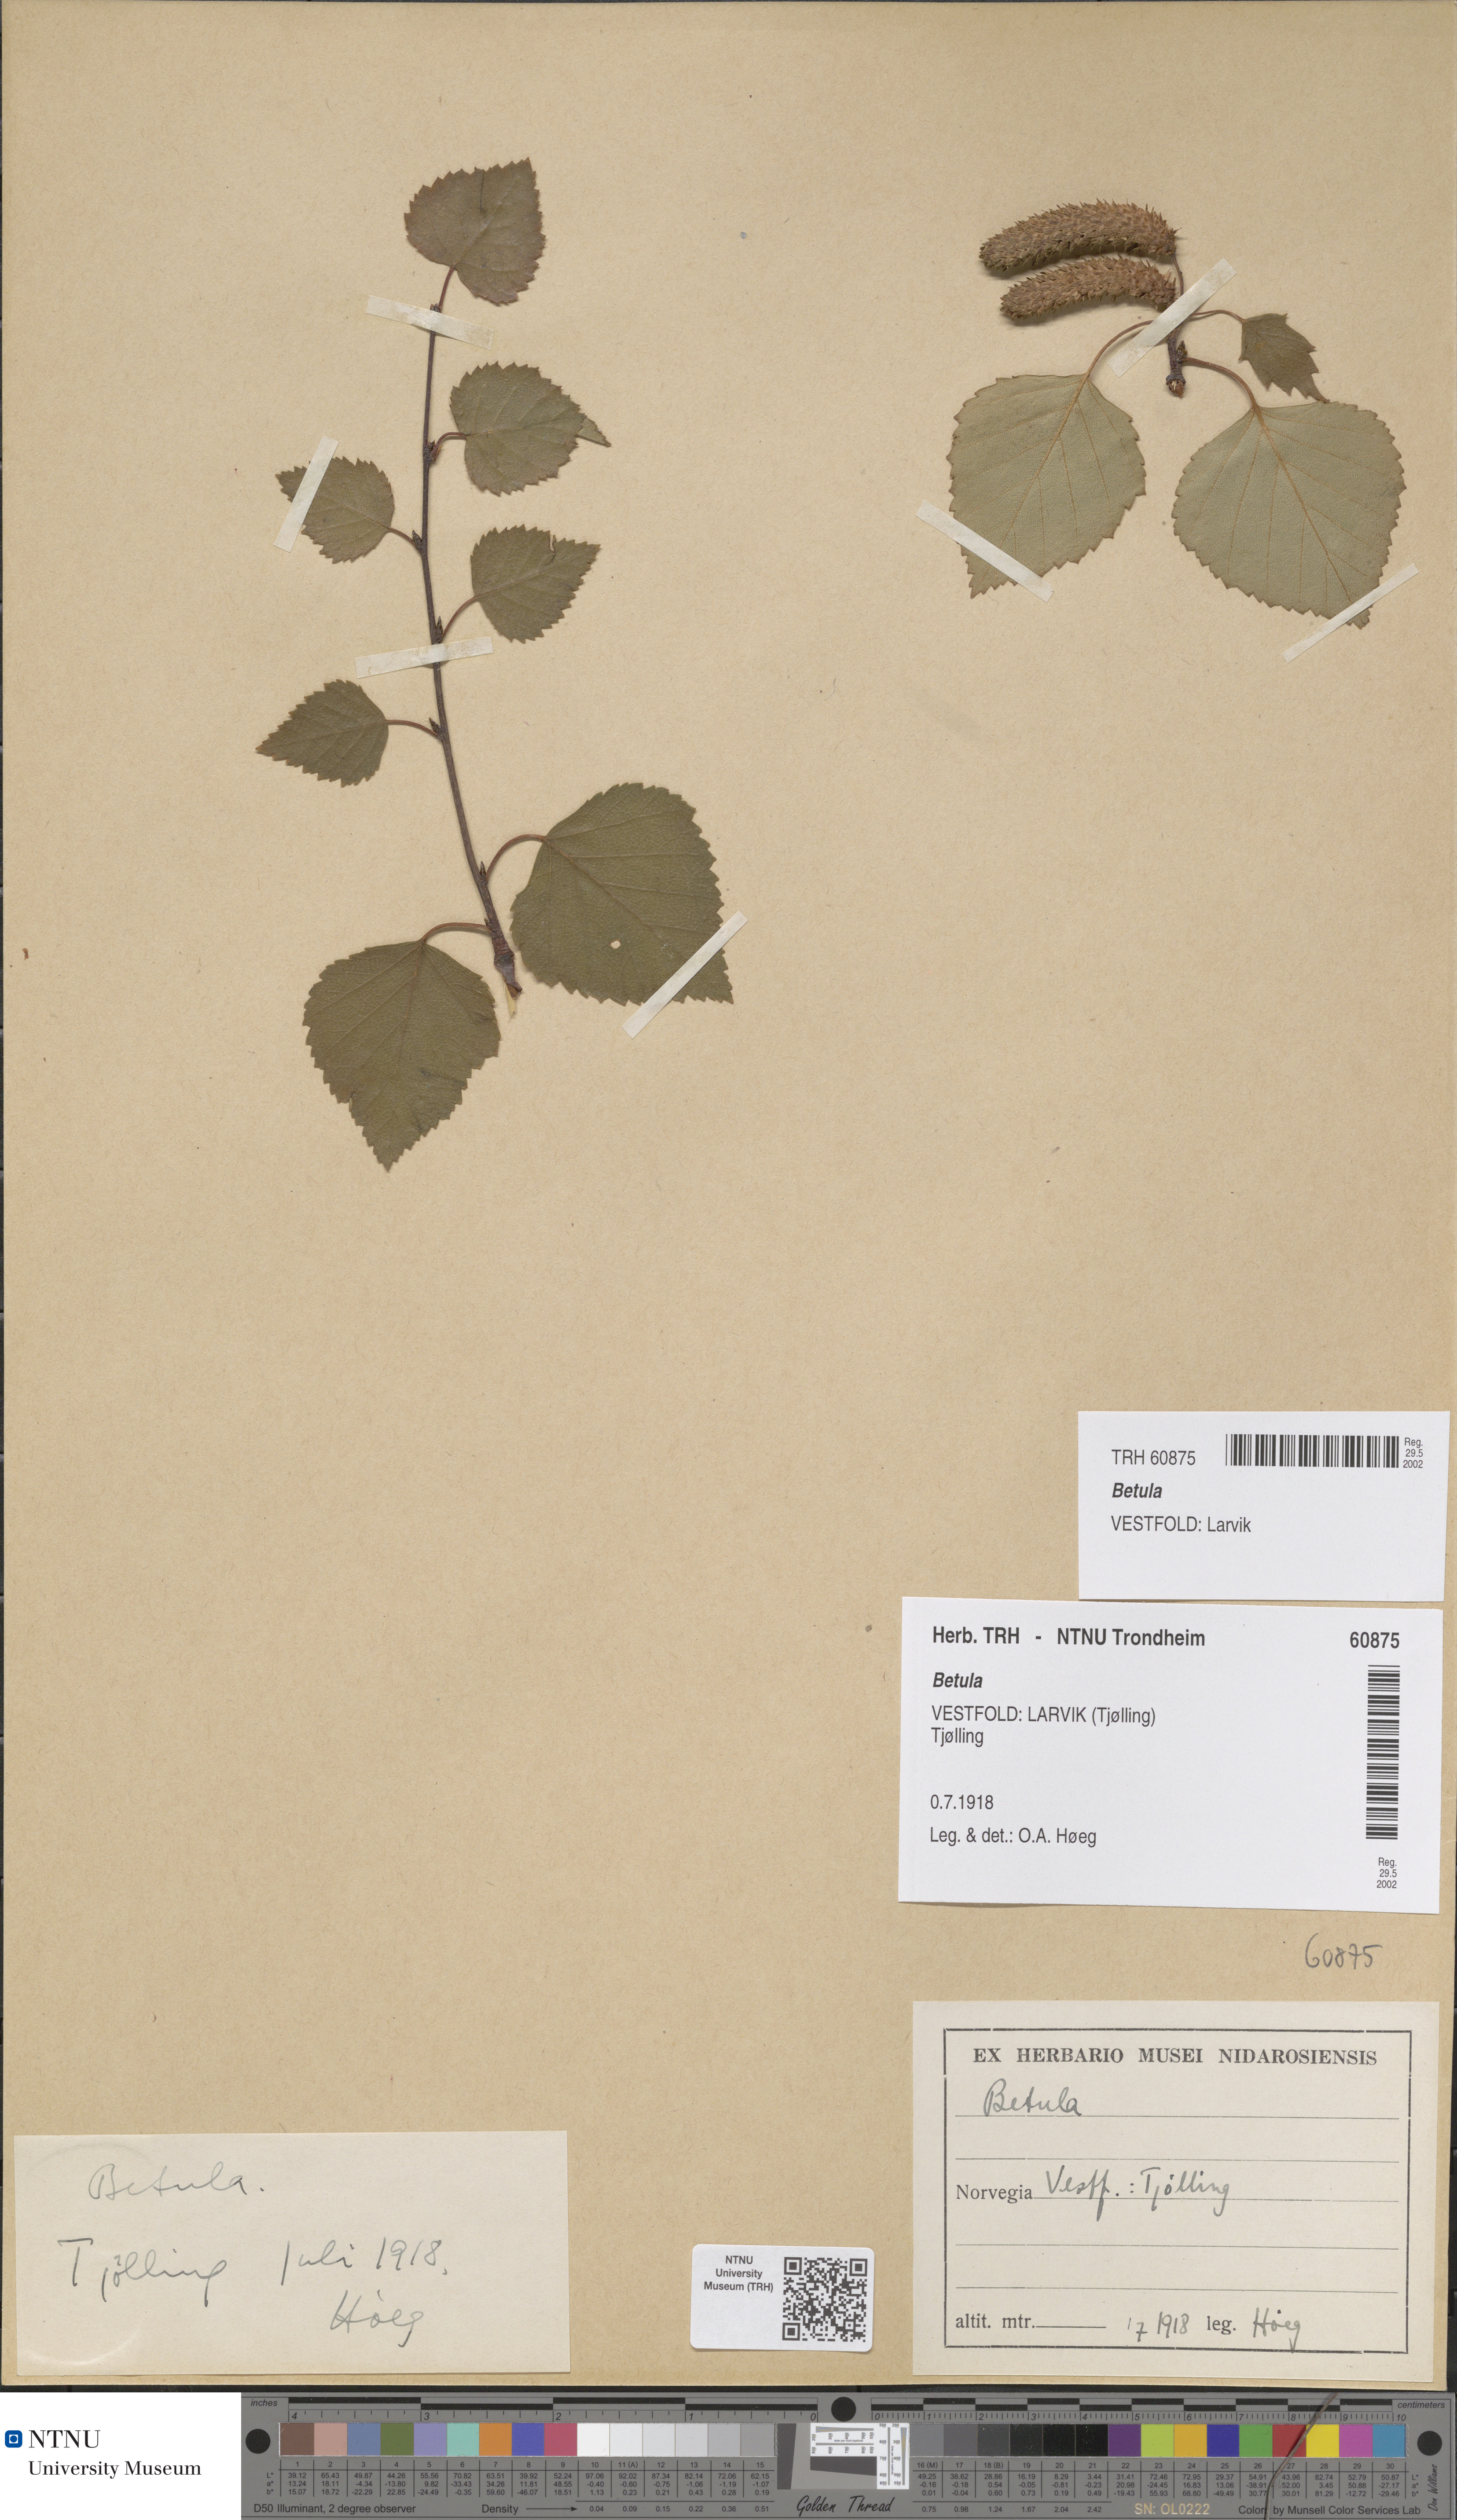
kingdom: Plantae
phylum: Tracheophyta
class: Magnoliopsida
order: Fagales
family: Betulaceae
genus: Betula
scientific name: Betula
